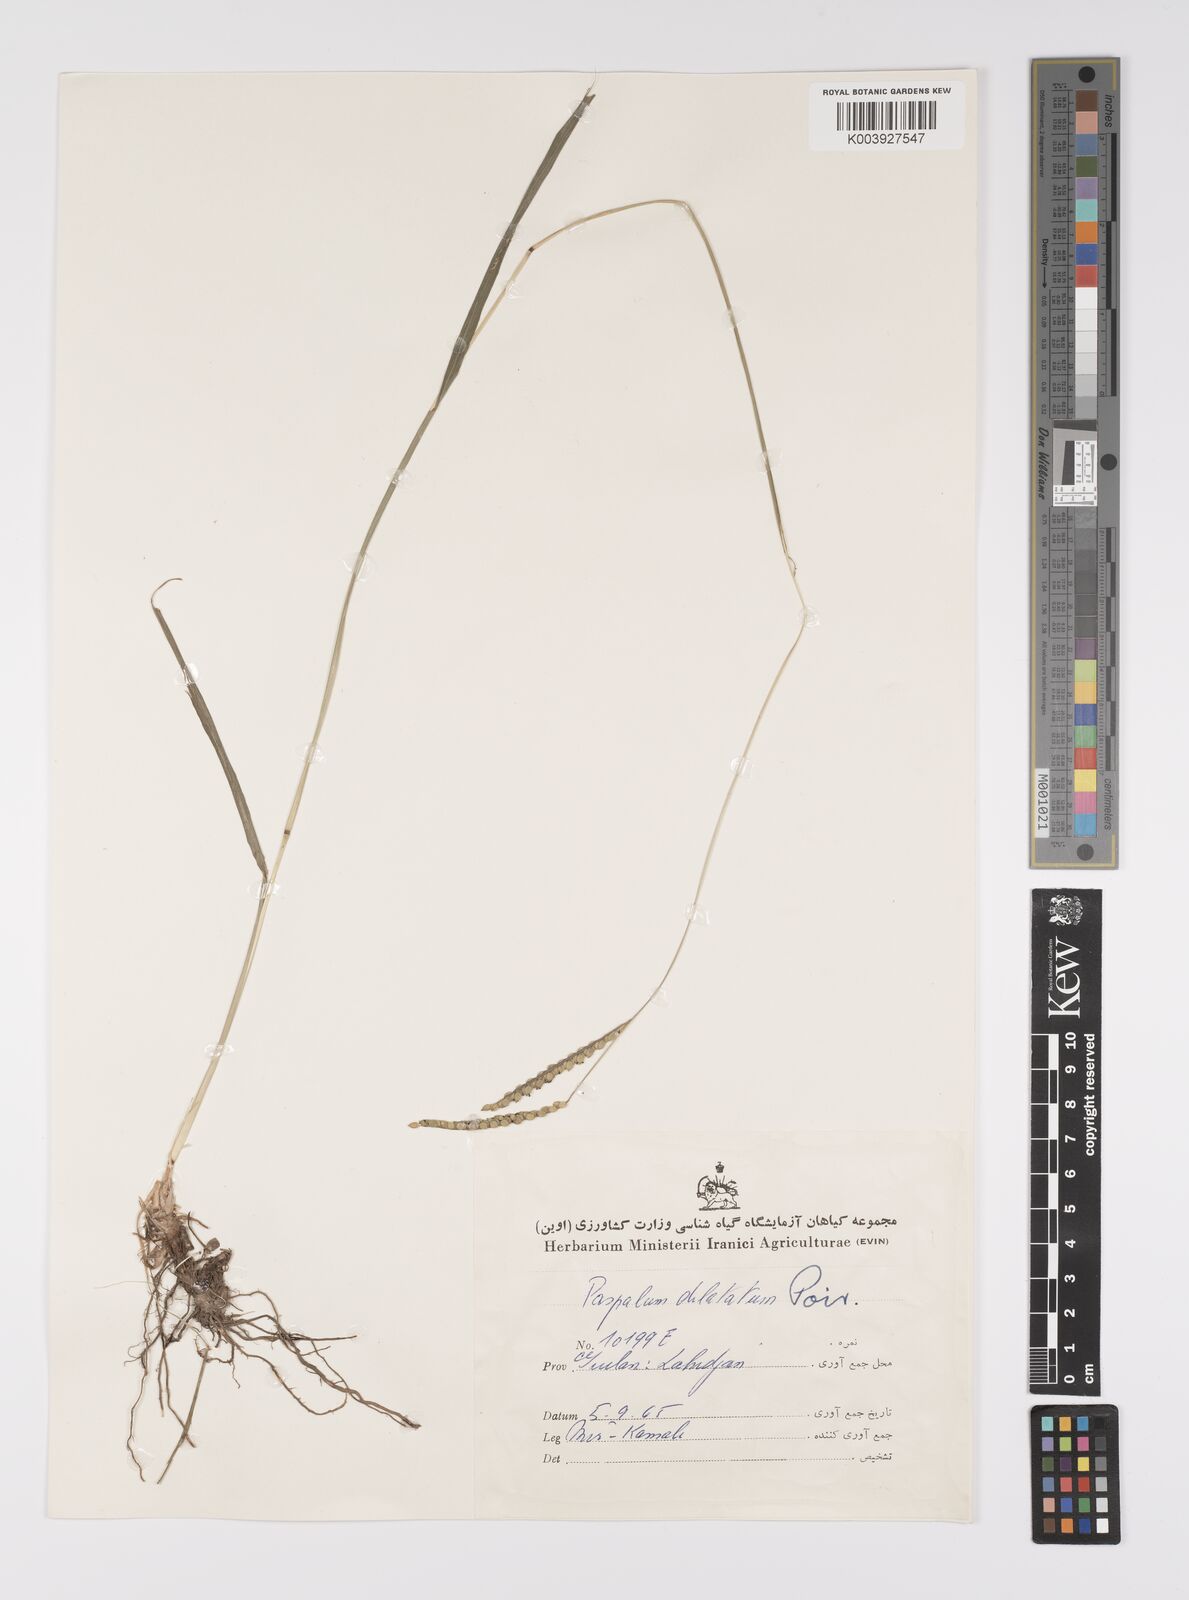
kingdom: Plantae
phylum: Tracheophyta
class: Liliopsida
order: Poales
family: Poaceae
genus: Paspalum
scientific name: Paspalum dilatatum
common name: Dallisgrass
